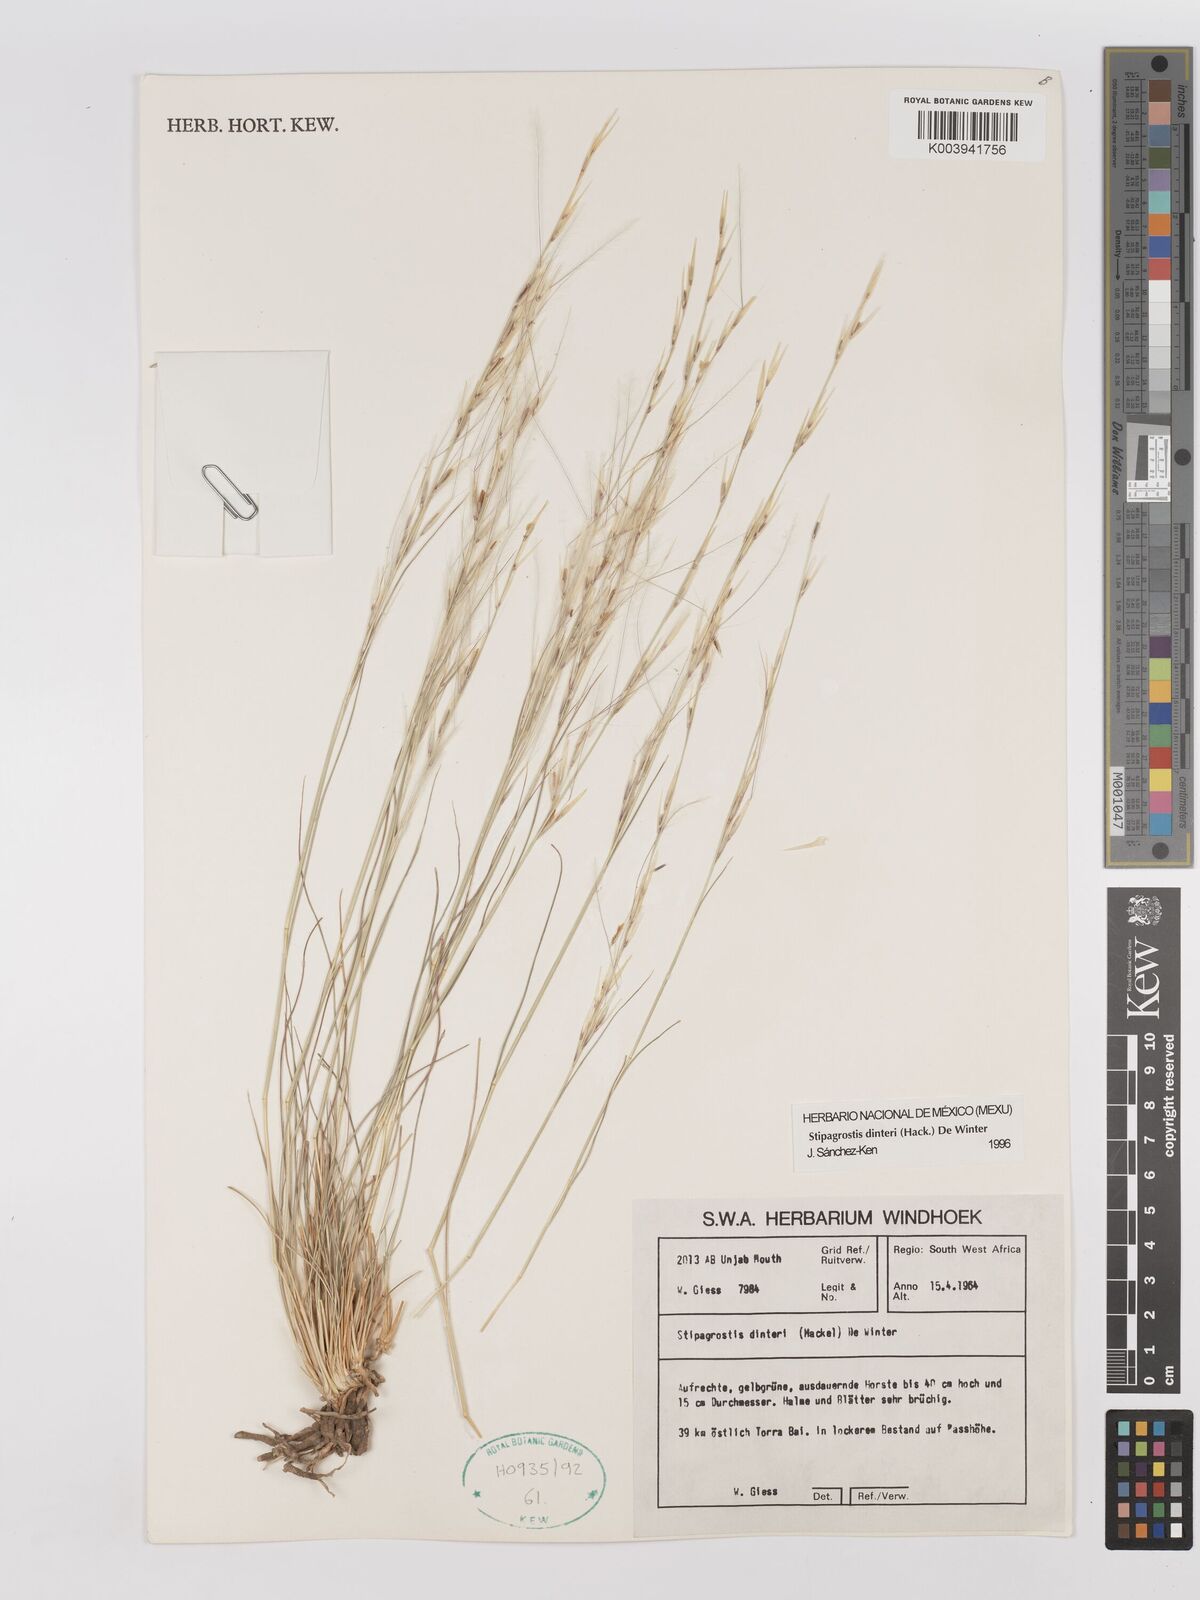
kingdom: Plantae
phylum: Tracheophyta
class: Liliopsida
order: Poales
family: Poaceae
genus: Stipagrostis
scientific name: Stipagrostis dinteri
